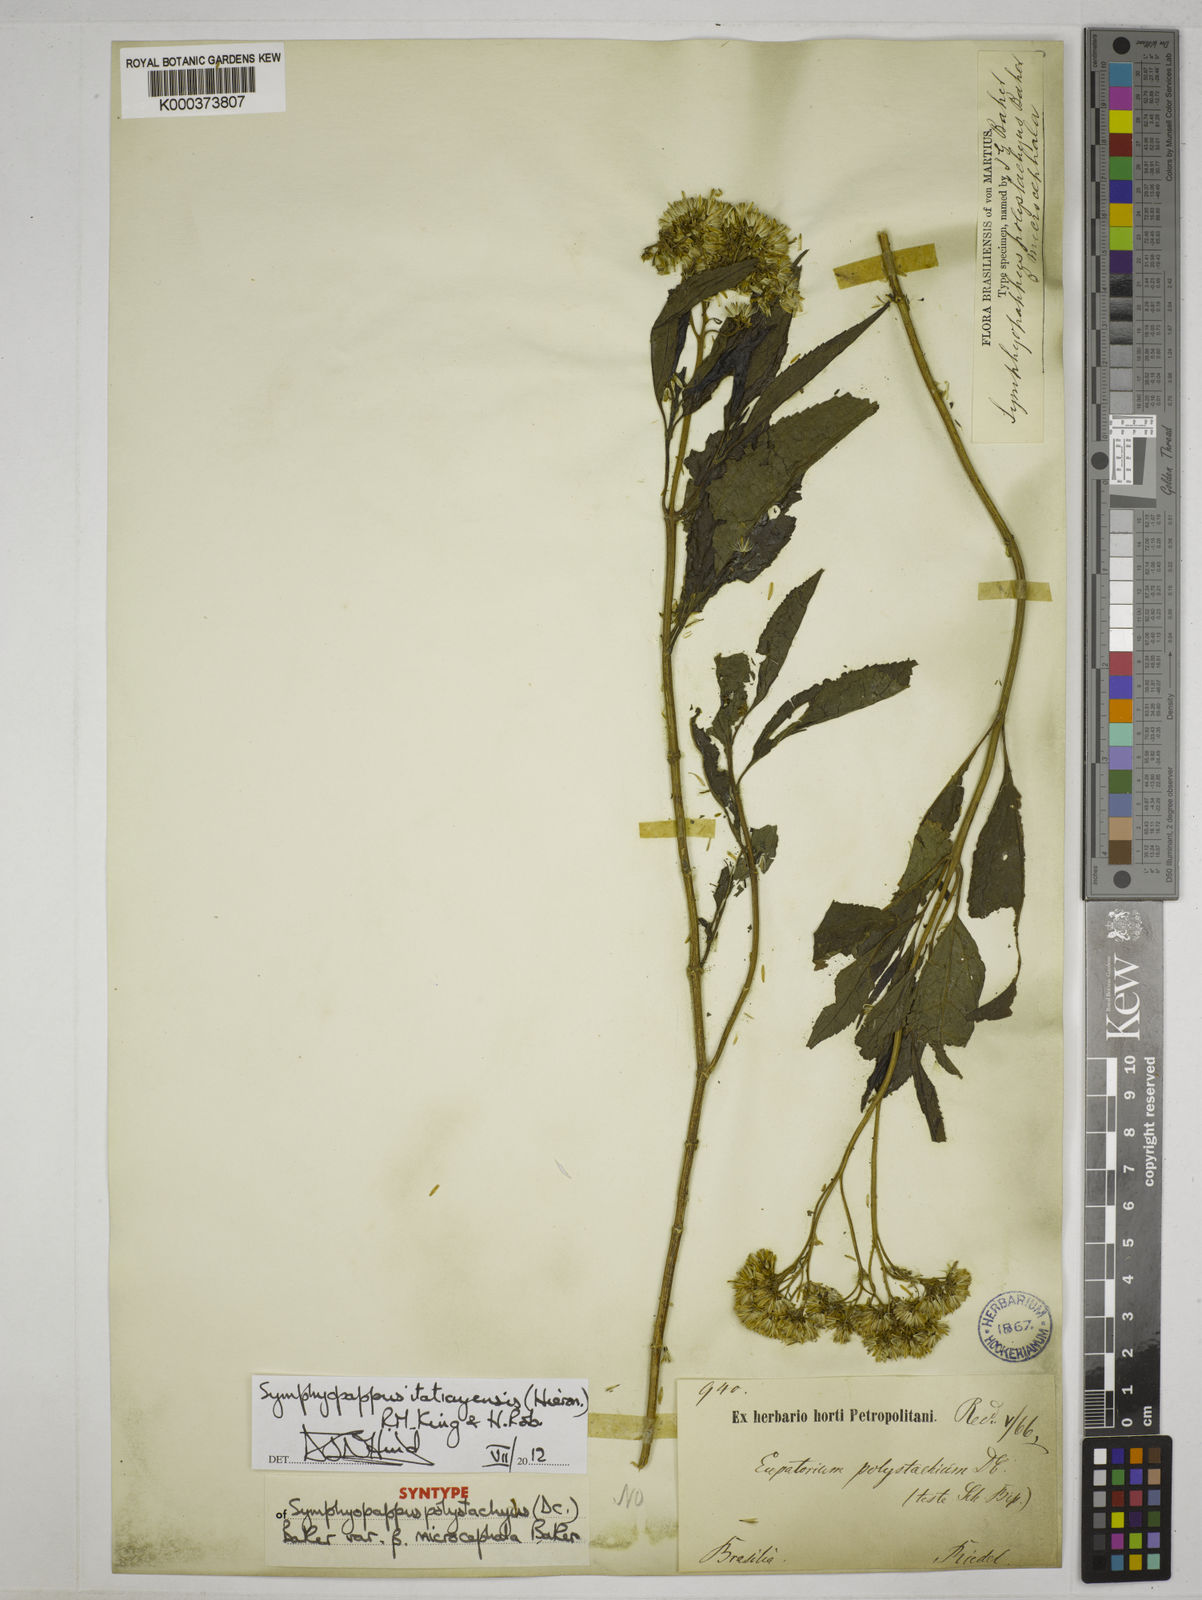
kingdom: Plantae
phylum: Tracheophyta
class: Magnoliopsida
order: Asterales
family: Asteraceae
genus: Symphyopappus
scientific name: Symphyopappus itatiayensis
